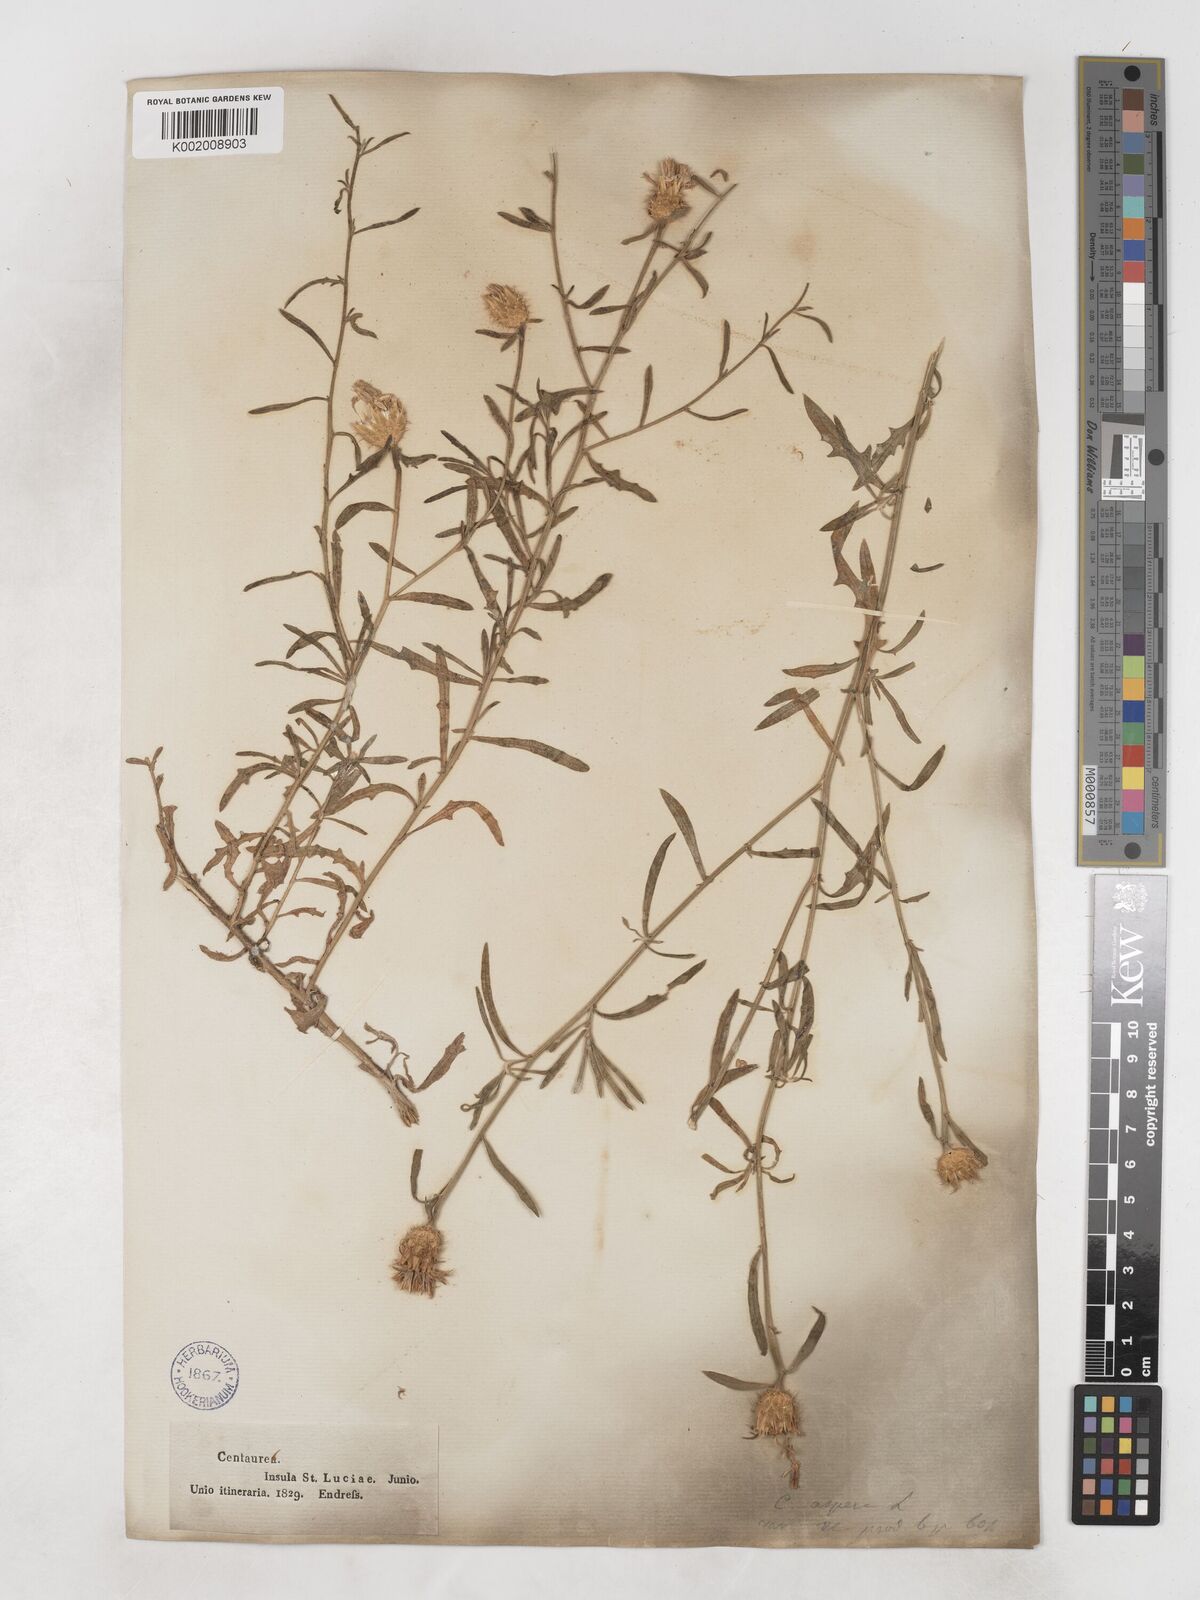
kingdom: Plantae
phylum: Tracheophyta
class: Magnoliopsida
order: Asterales
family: Asteraceae
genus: Centaurea
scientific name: Centaurea aspera
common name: Rough star-thistle
